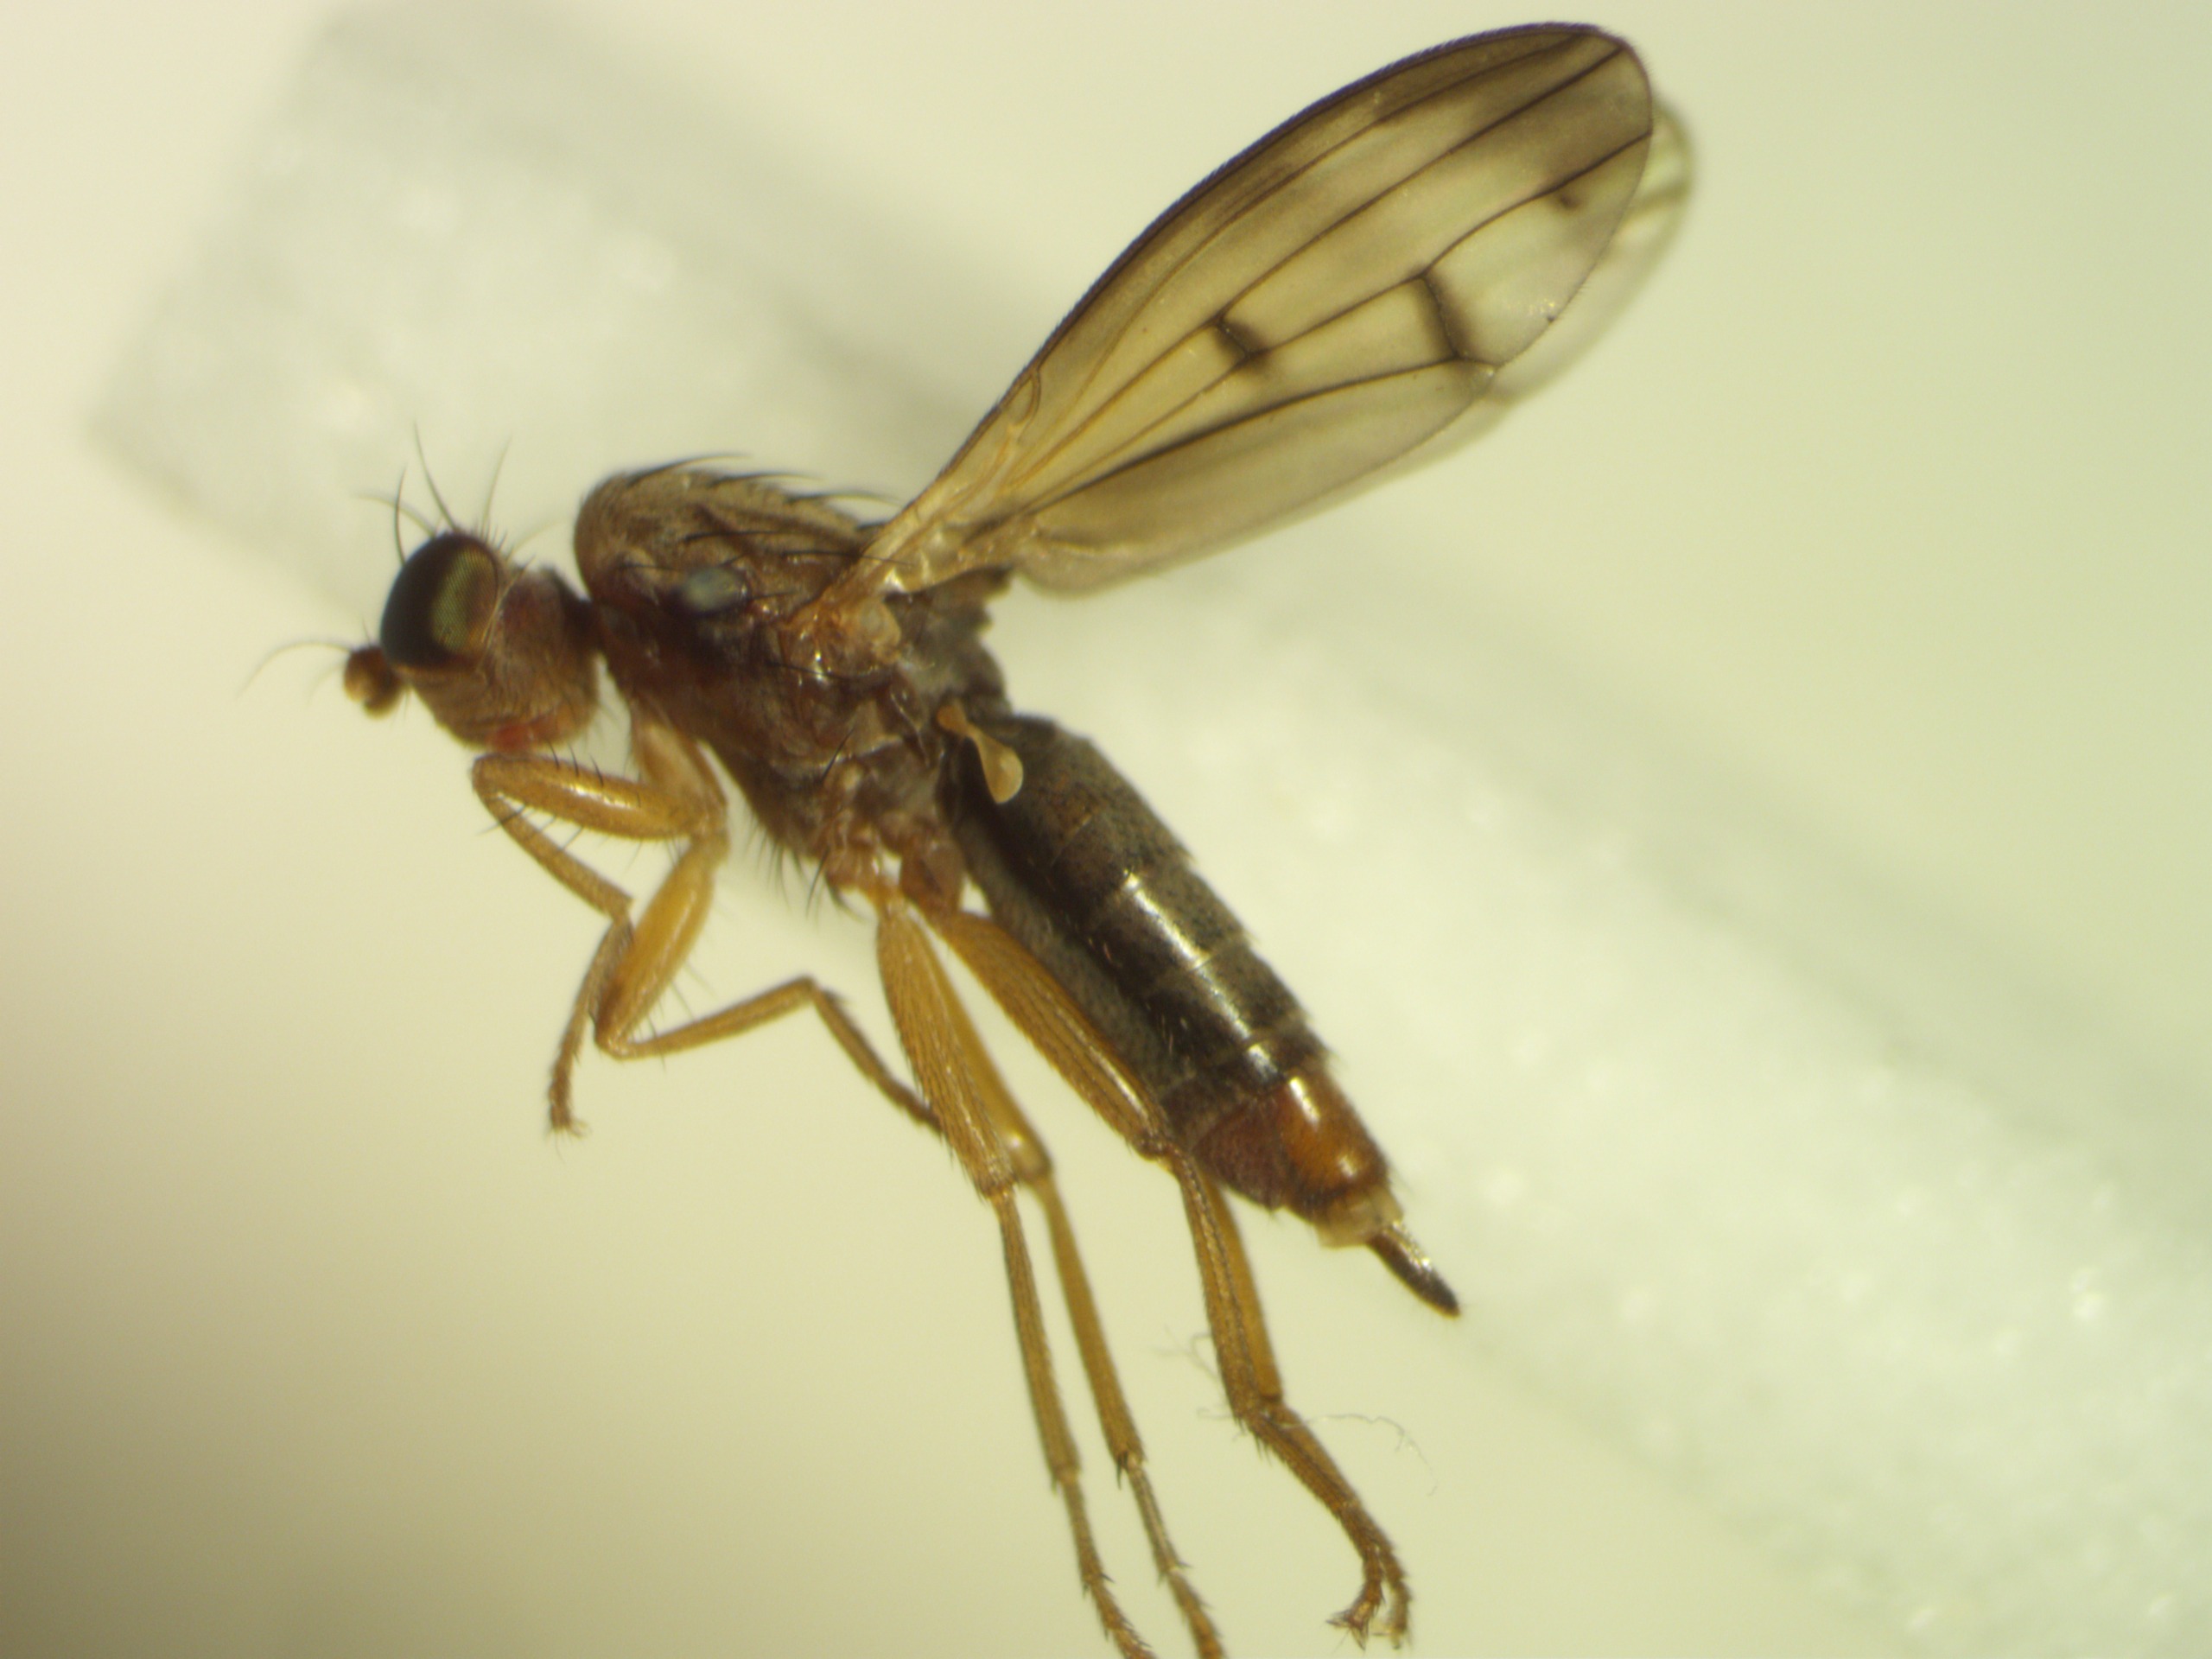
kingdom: Animalia
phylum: Arthropoda
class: Insecta
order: Diptera
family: Opomyzidae
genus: Opomyza
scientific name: Opomyza germinationis
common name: Stribet græsflue
